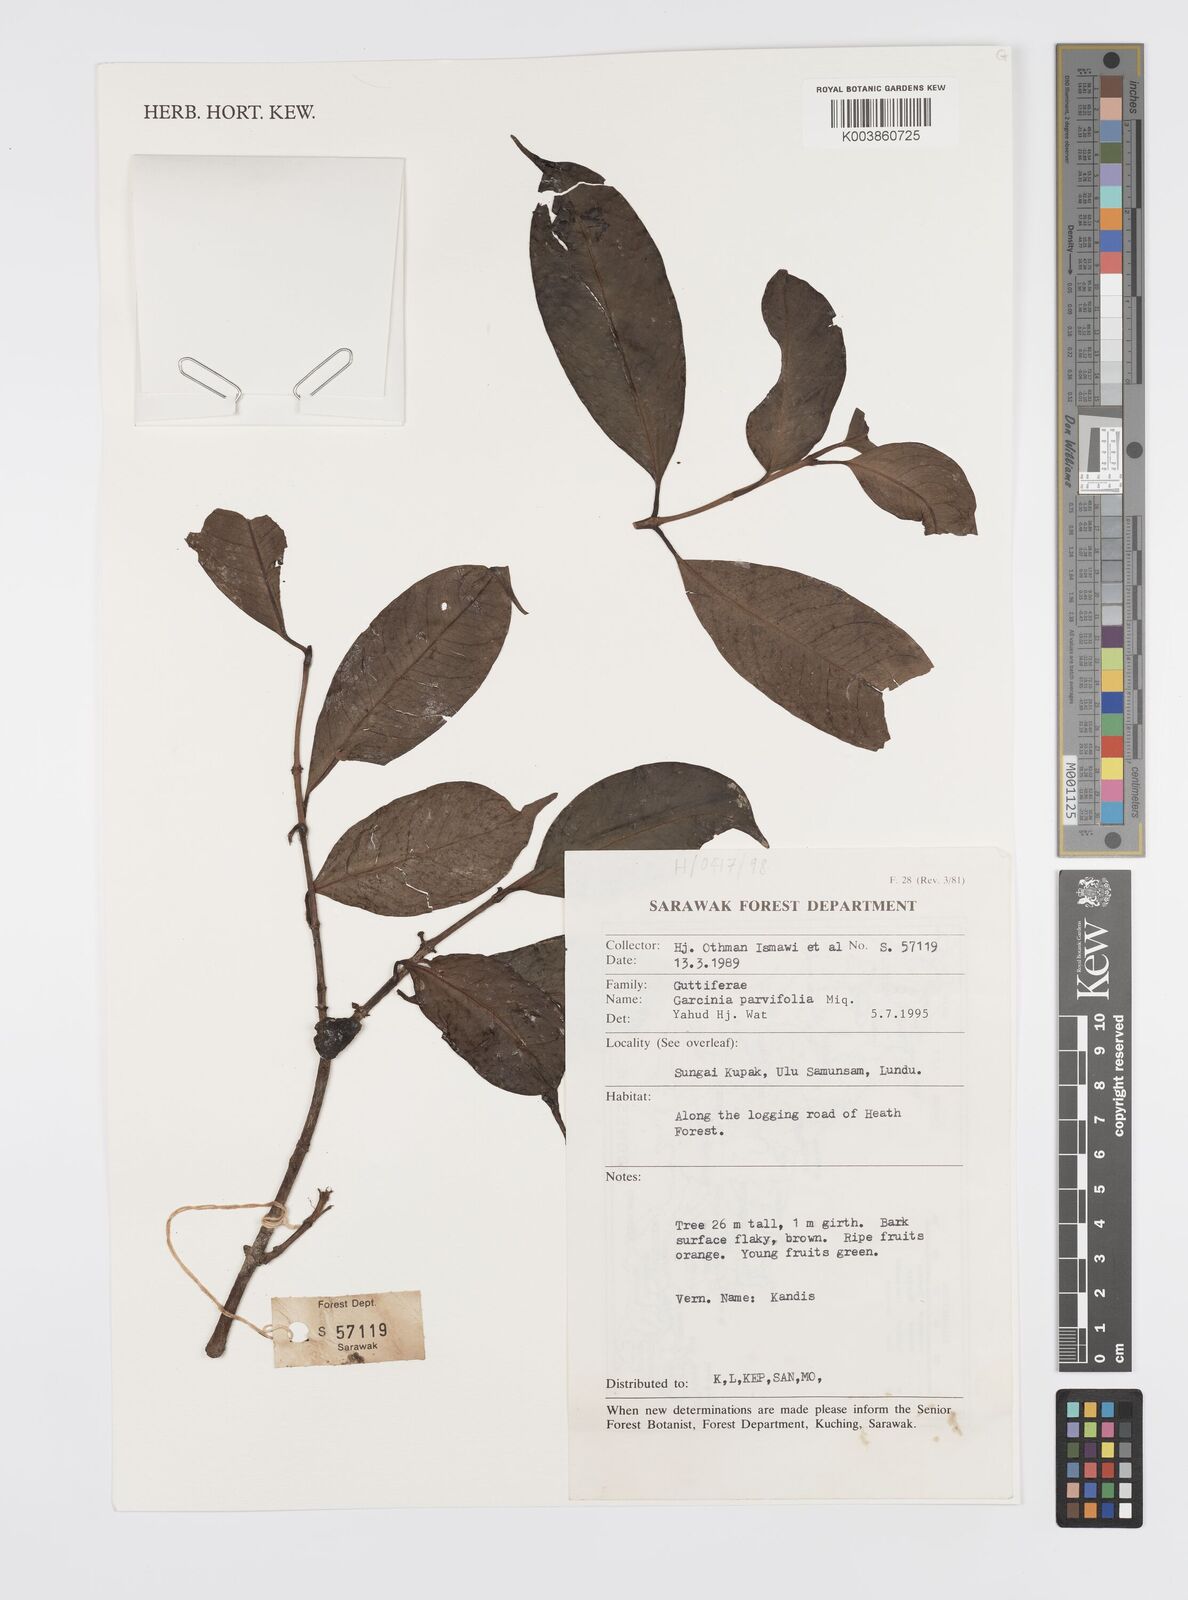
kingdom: Plantae
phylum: Tracheophyta
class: Magnoliopsida
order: Malpighiales
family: Clusiaceae
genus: Garcinia
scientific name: Garcinia parvifolia
